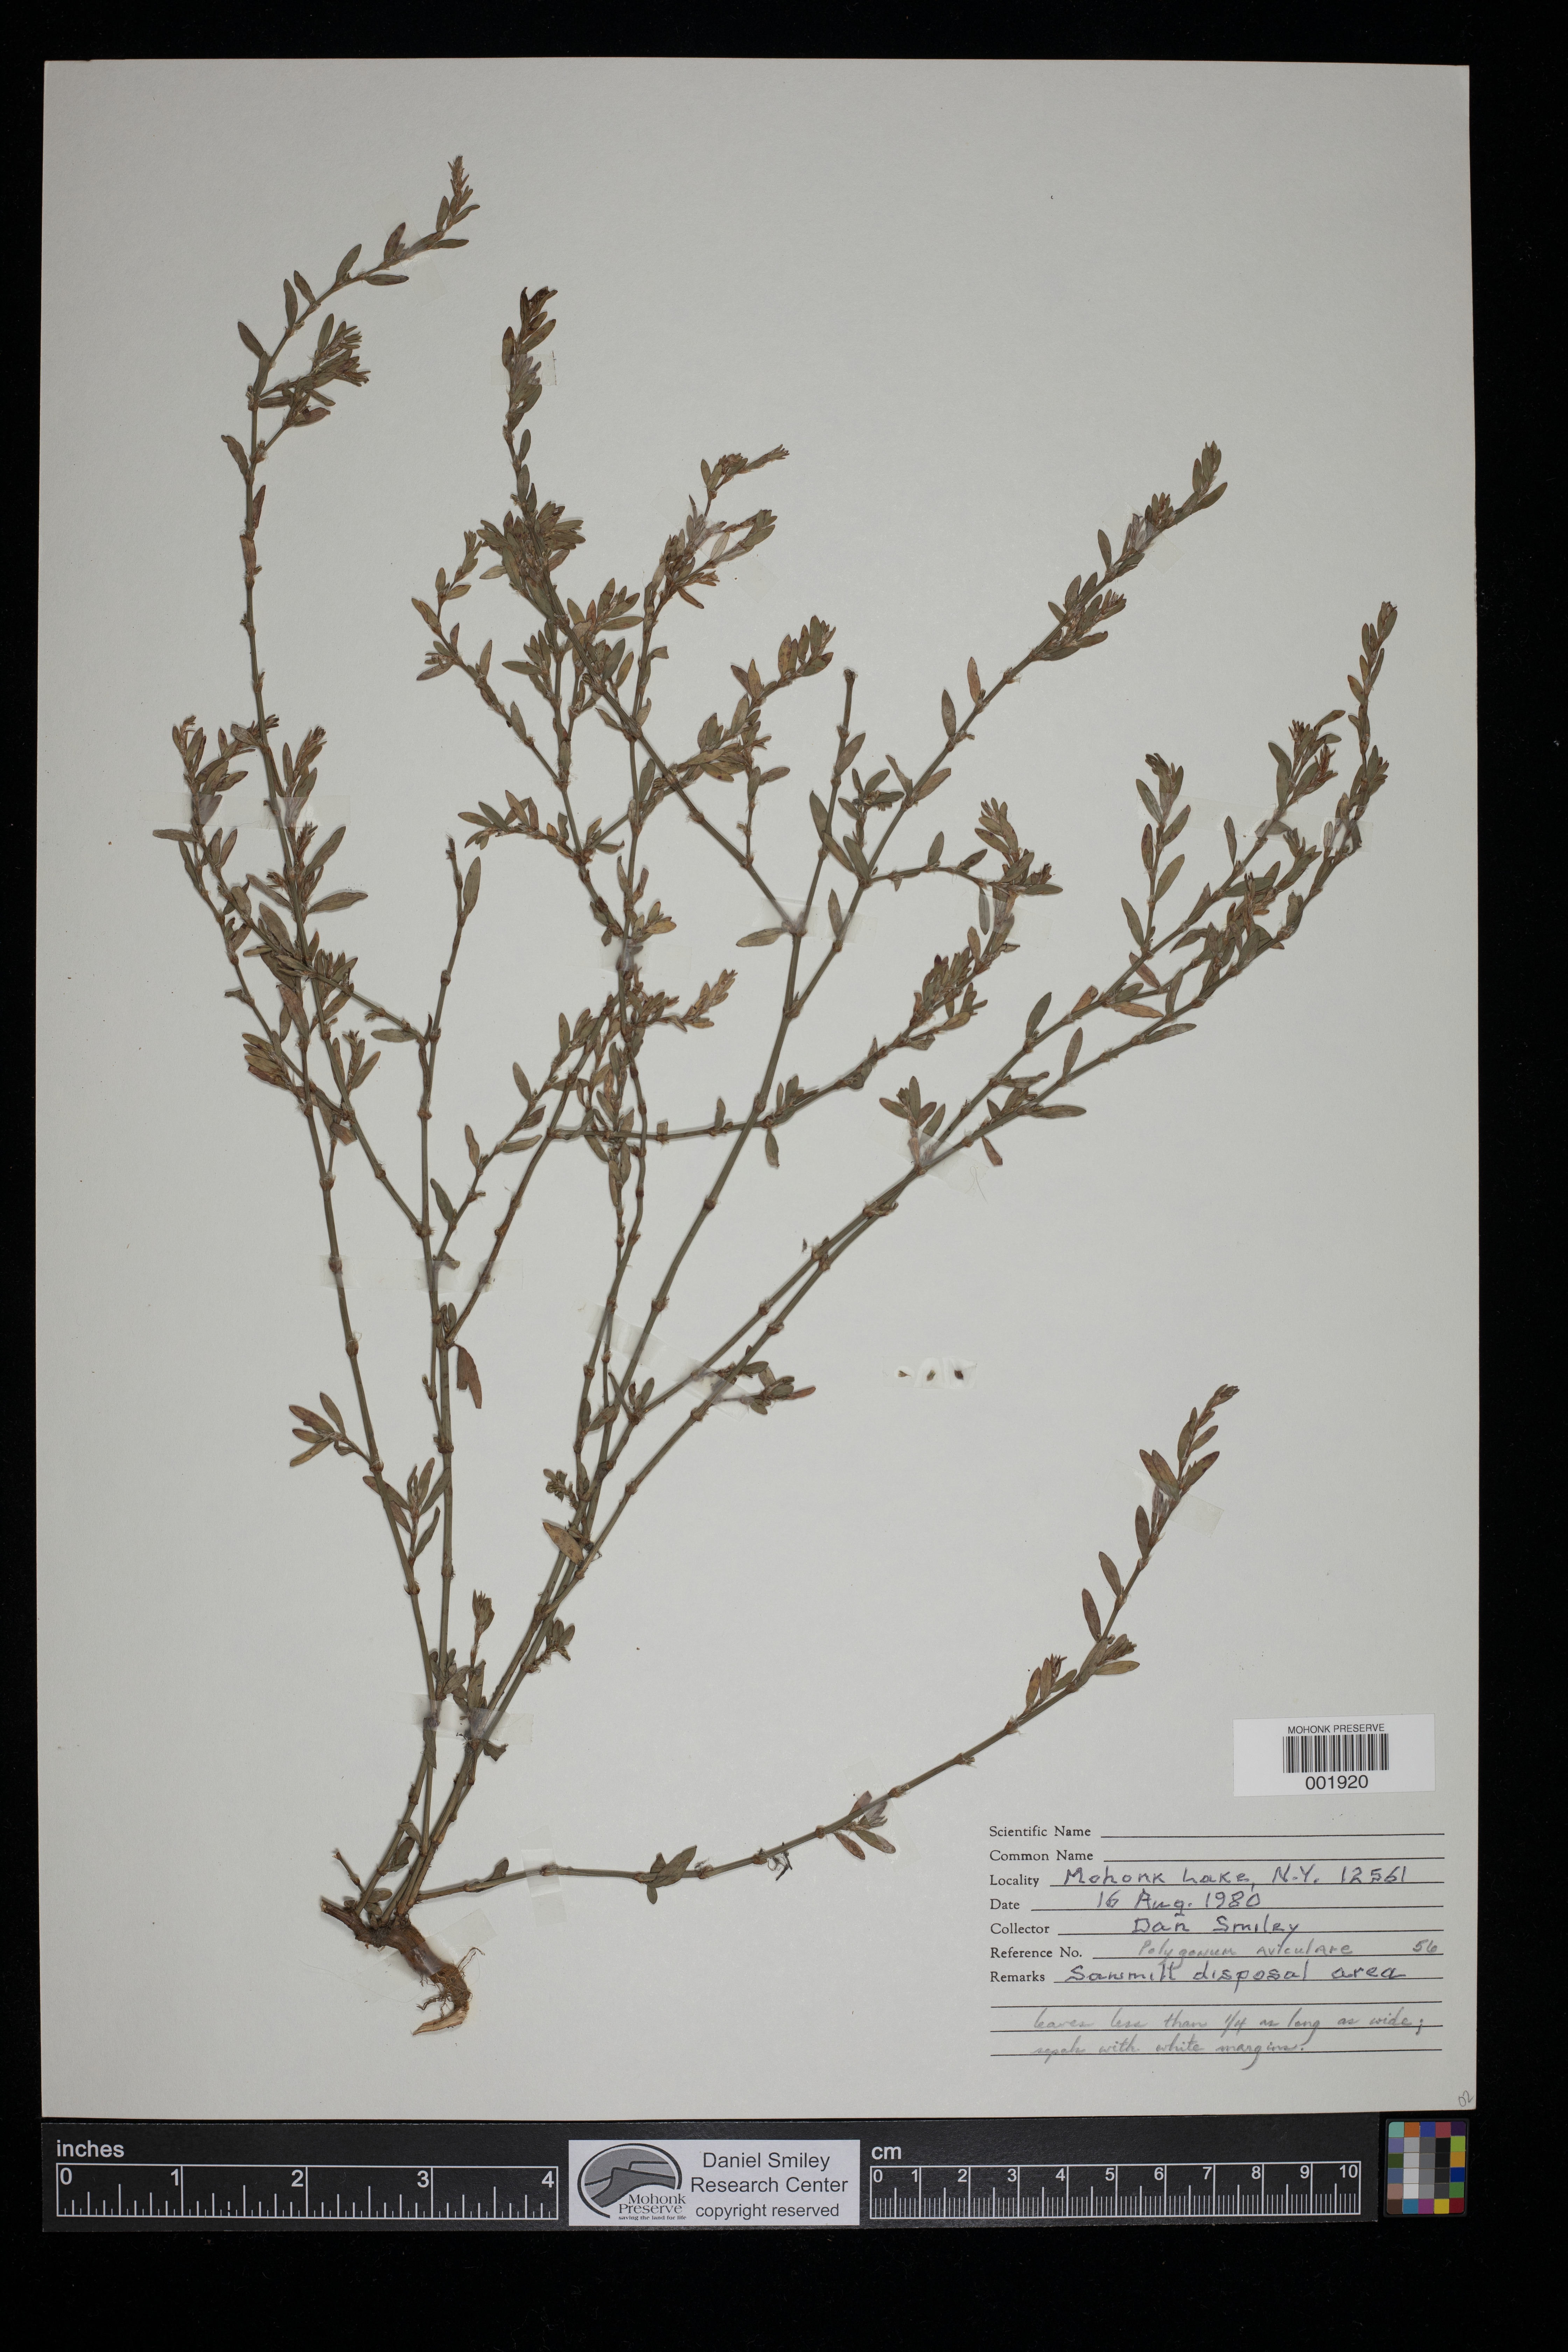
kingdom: Plantae
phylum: Tracheophyta
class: Magnoliopsida
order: Caryophyllales
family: Polygonaceae
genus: Polygonum
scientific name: Polygonum aviculare
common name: Prostrate knotweed
